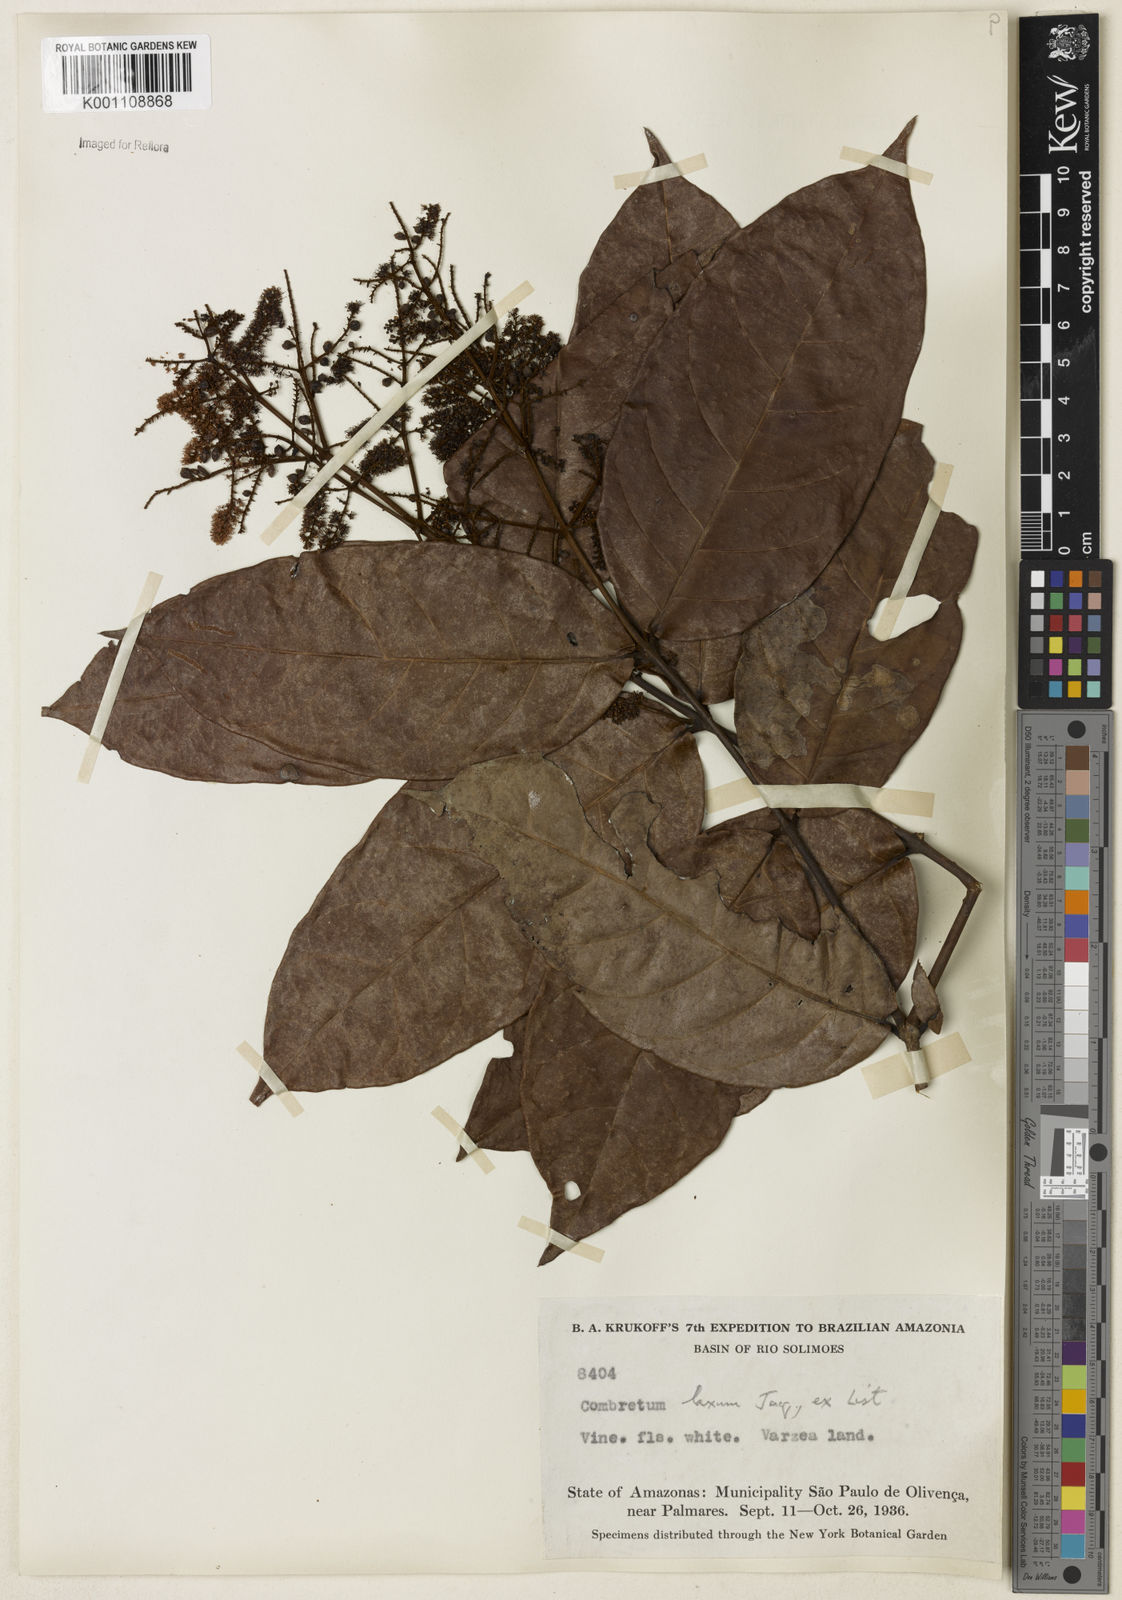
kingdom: Plantae
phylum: Tracheophyta
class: Magnoliopsida
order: Myrtales
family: Combretaceae
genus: Combretum
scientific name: Combretum laxum
